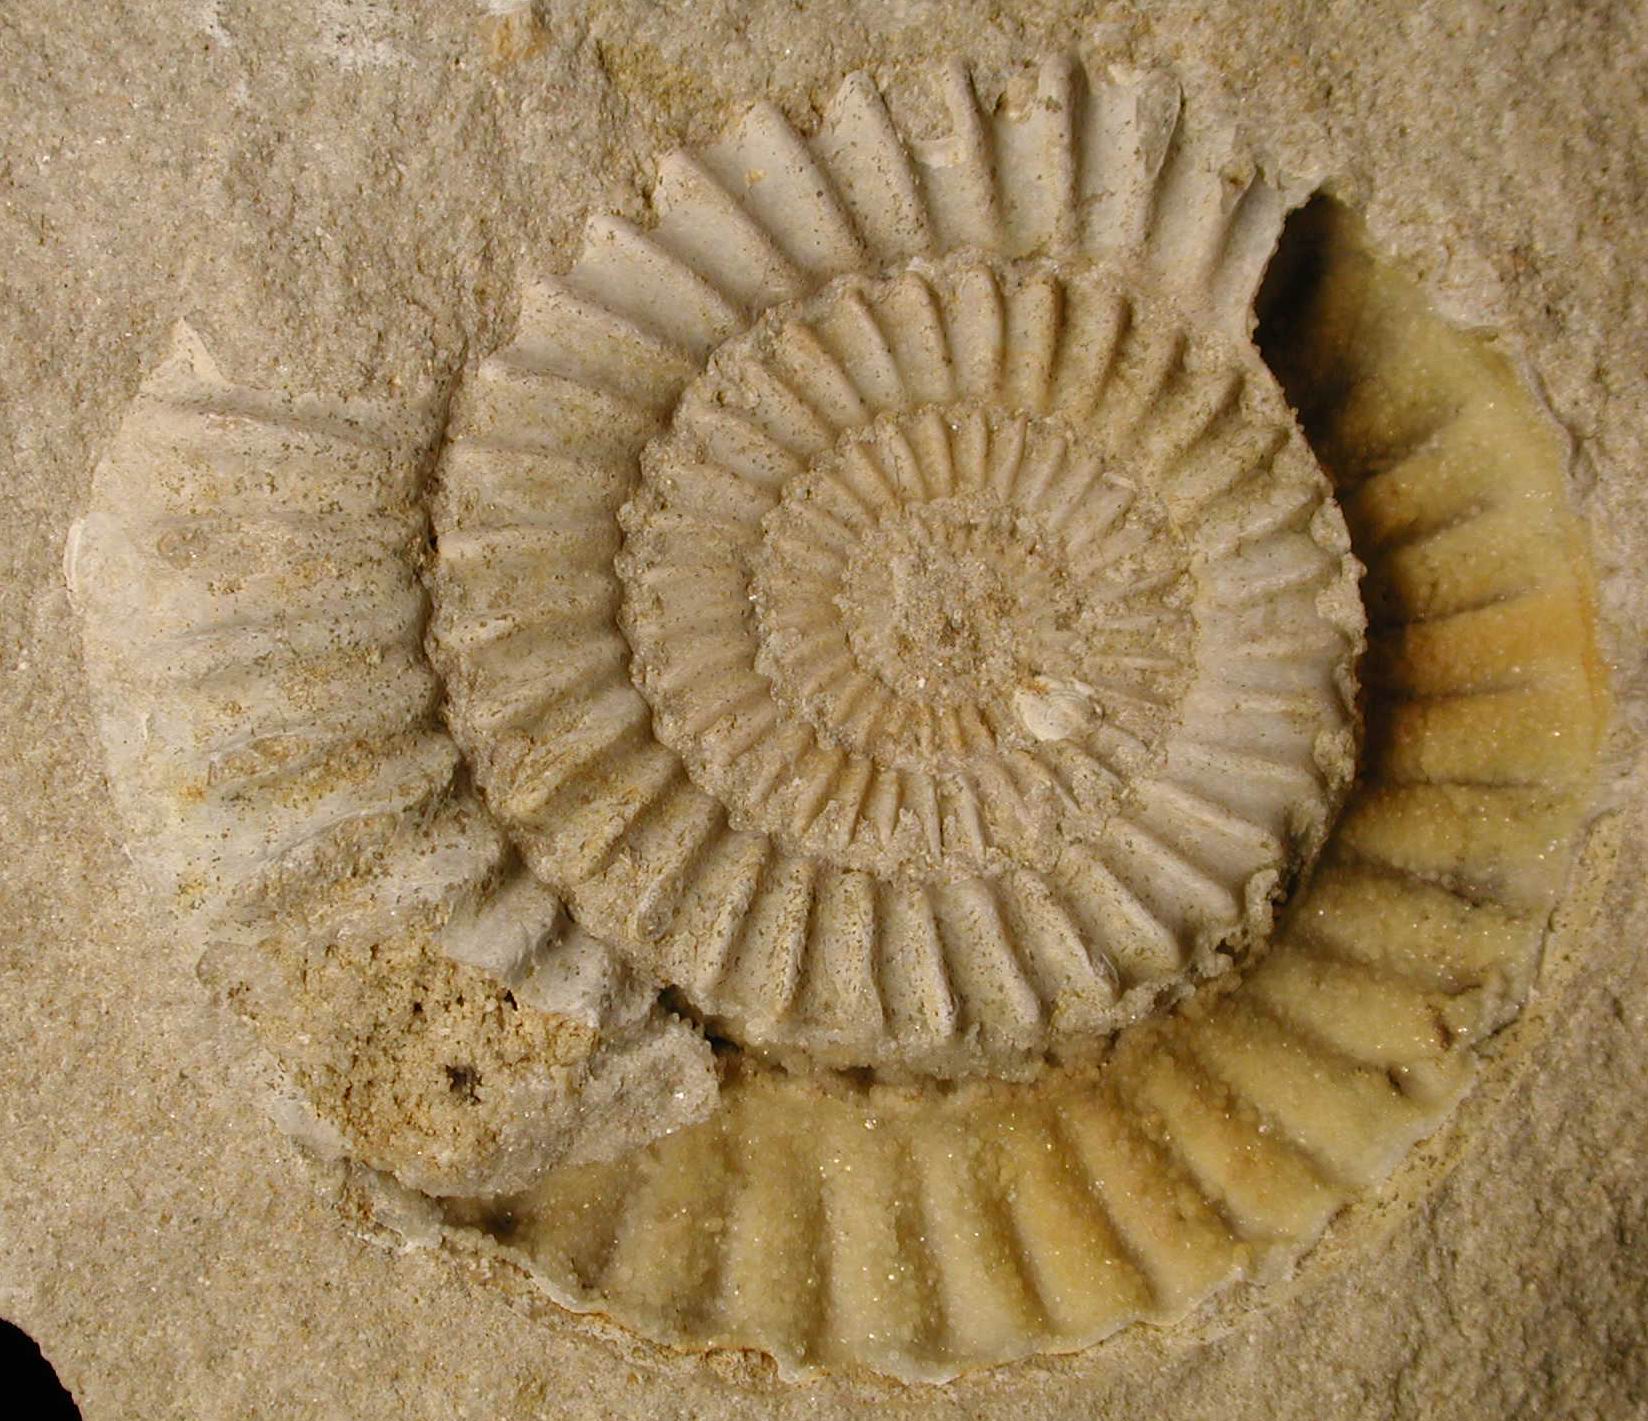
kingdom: Animalia
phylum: Mollusca
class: Cephalopoda
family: Arietitidae
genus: Metophioceras
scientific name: Metophioceras
